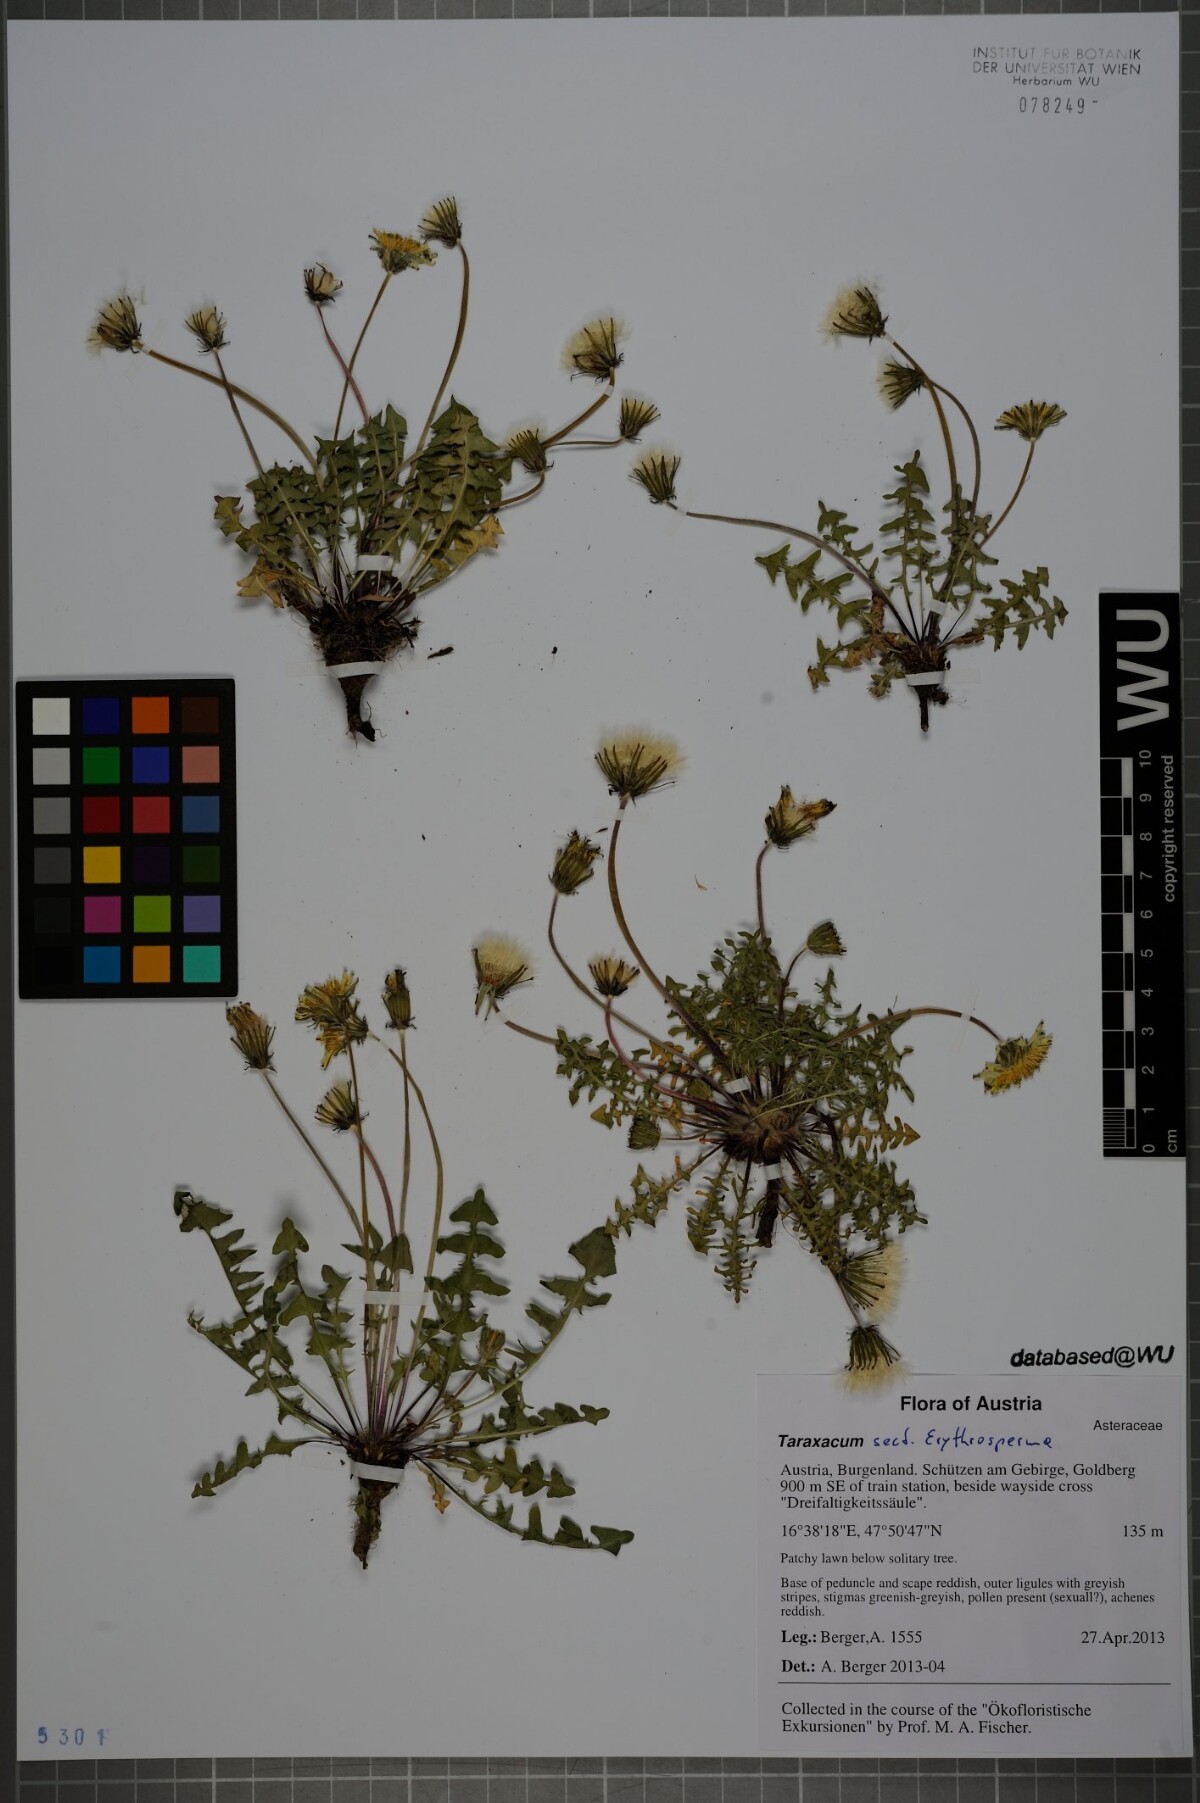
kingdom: Plantae
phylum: Tracheophyta
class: Magnoliopsida
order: Asterales
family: Asteraceae
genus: Taraxacum
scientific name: Taraxacum
